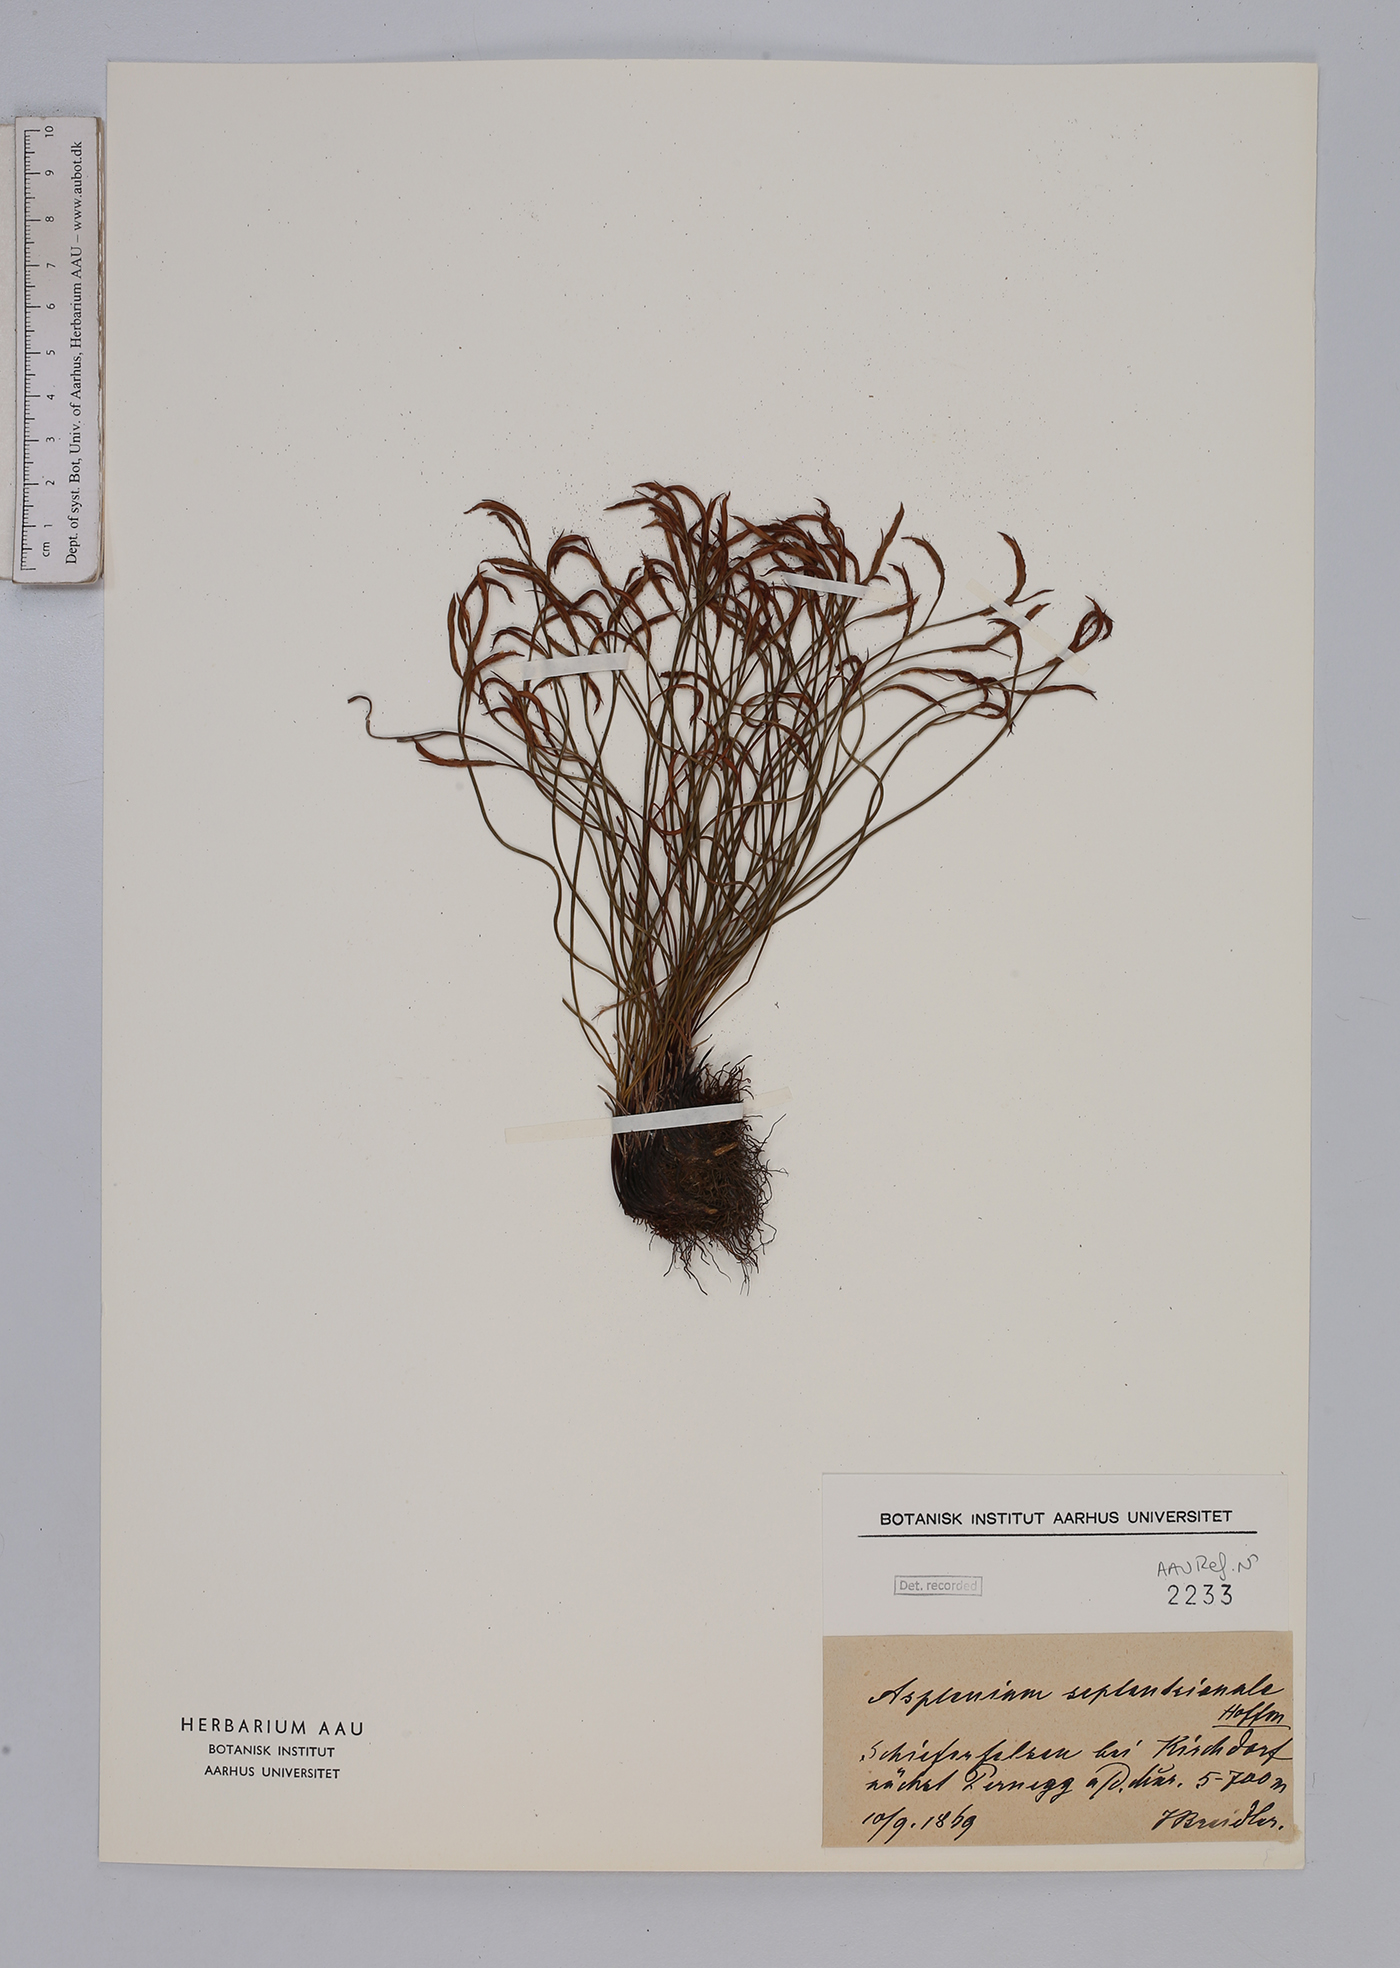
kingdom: Plantae
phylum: Tracheophyta
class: Polypodiopsida
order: Polypodiales
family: Aspleniaceae
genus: Asplenium
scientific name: Asplenium septentrionale
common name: Forked spleenwort
